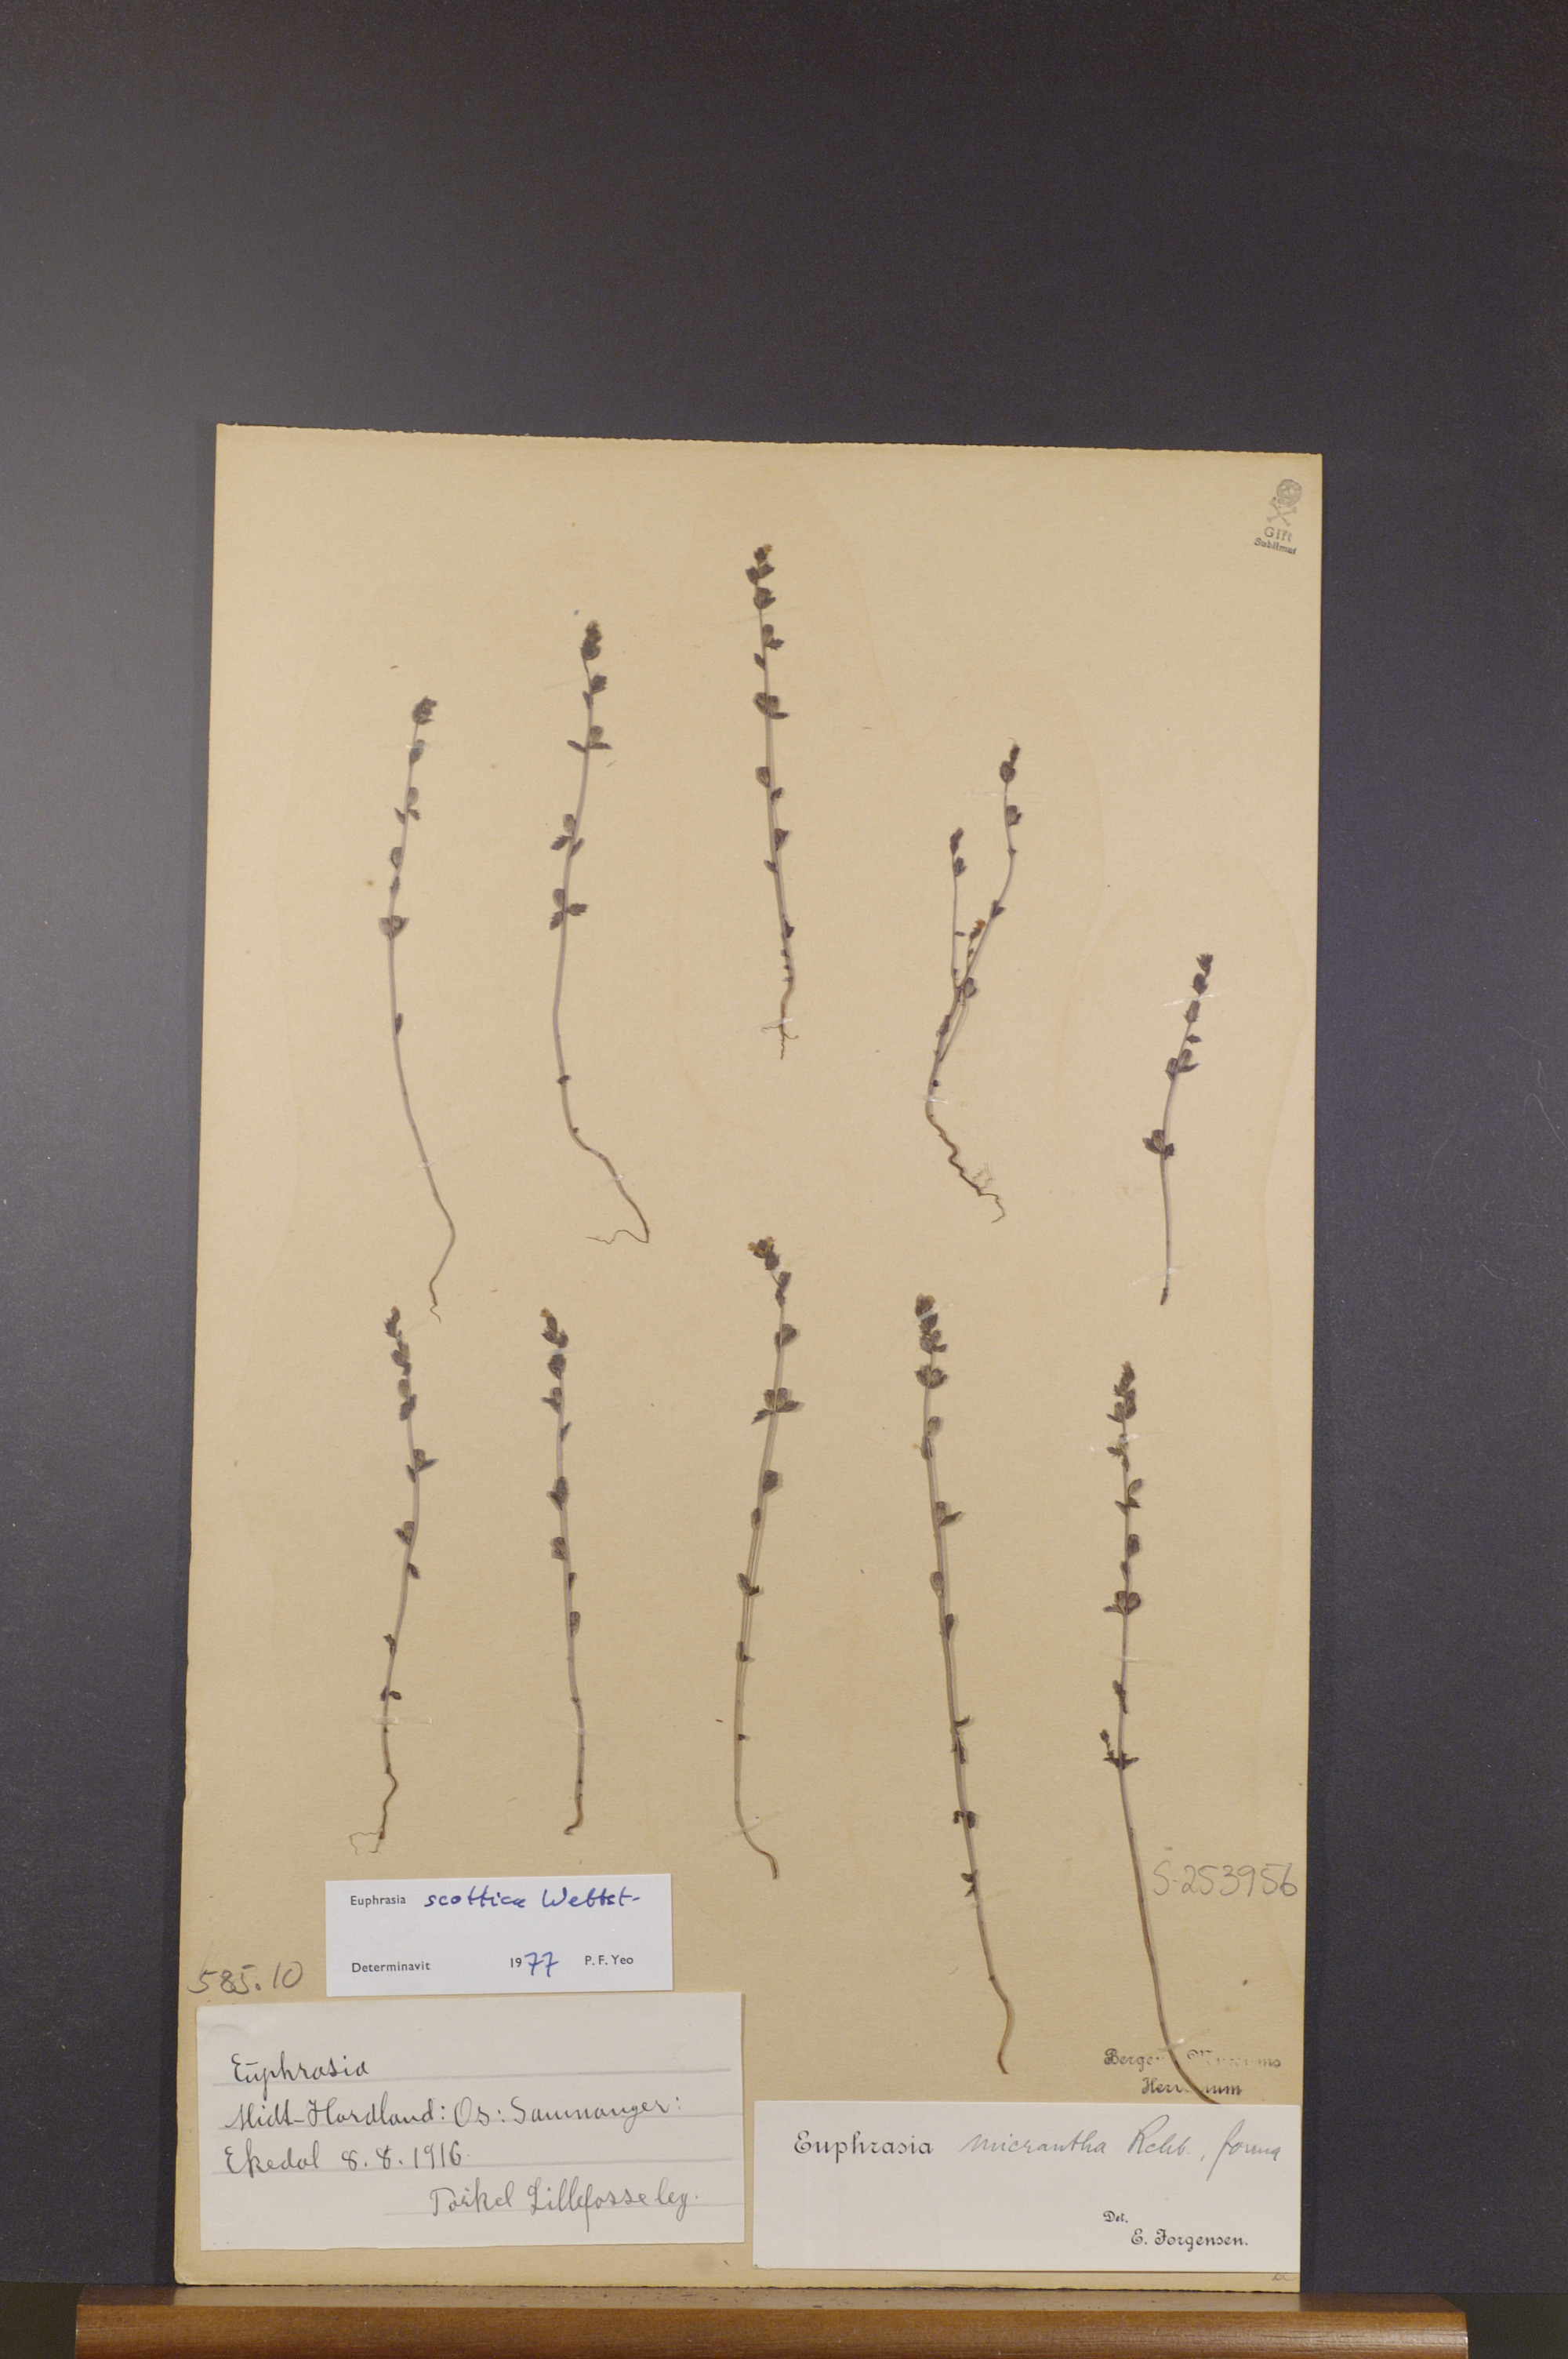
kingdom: Plantae
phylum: Tracheophyta
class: Magnoliopsida
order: Lamiales
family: Orobanchaceae
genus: Euphrasia
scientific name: Euphrasia scottica
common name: Slender scottish eyebright
